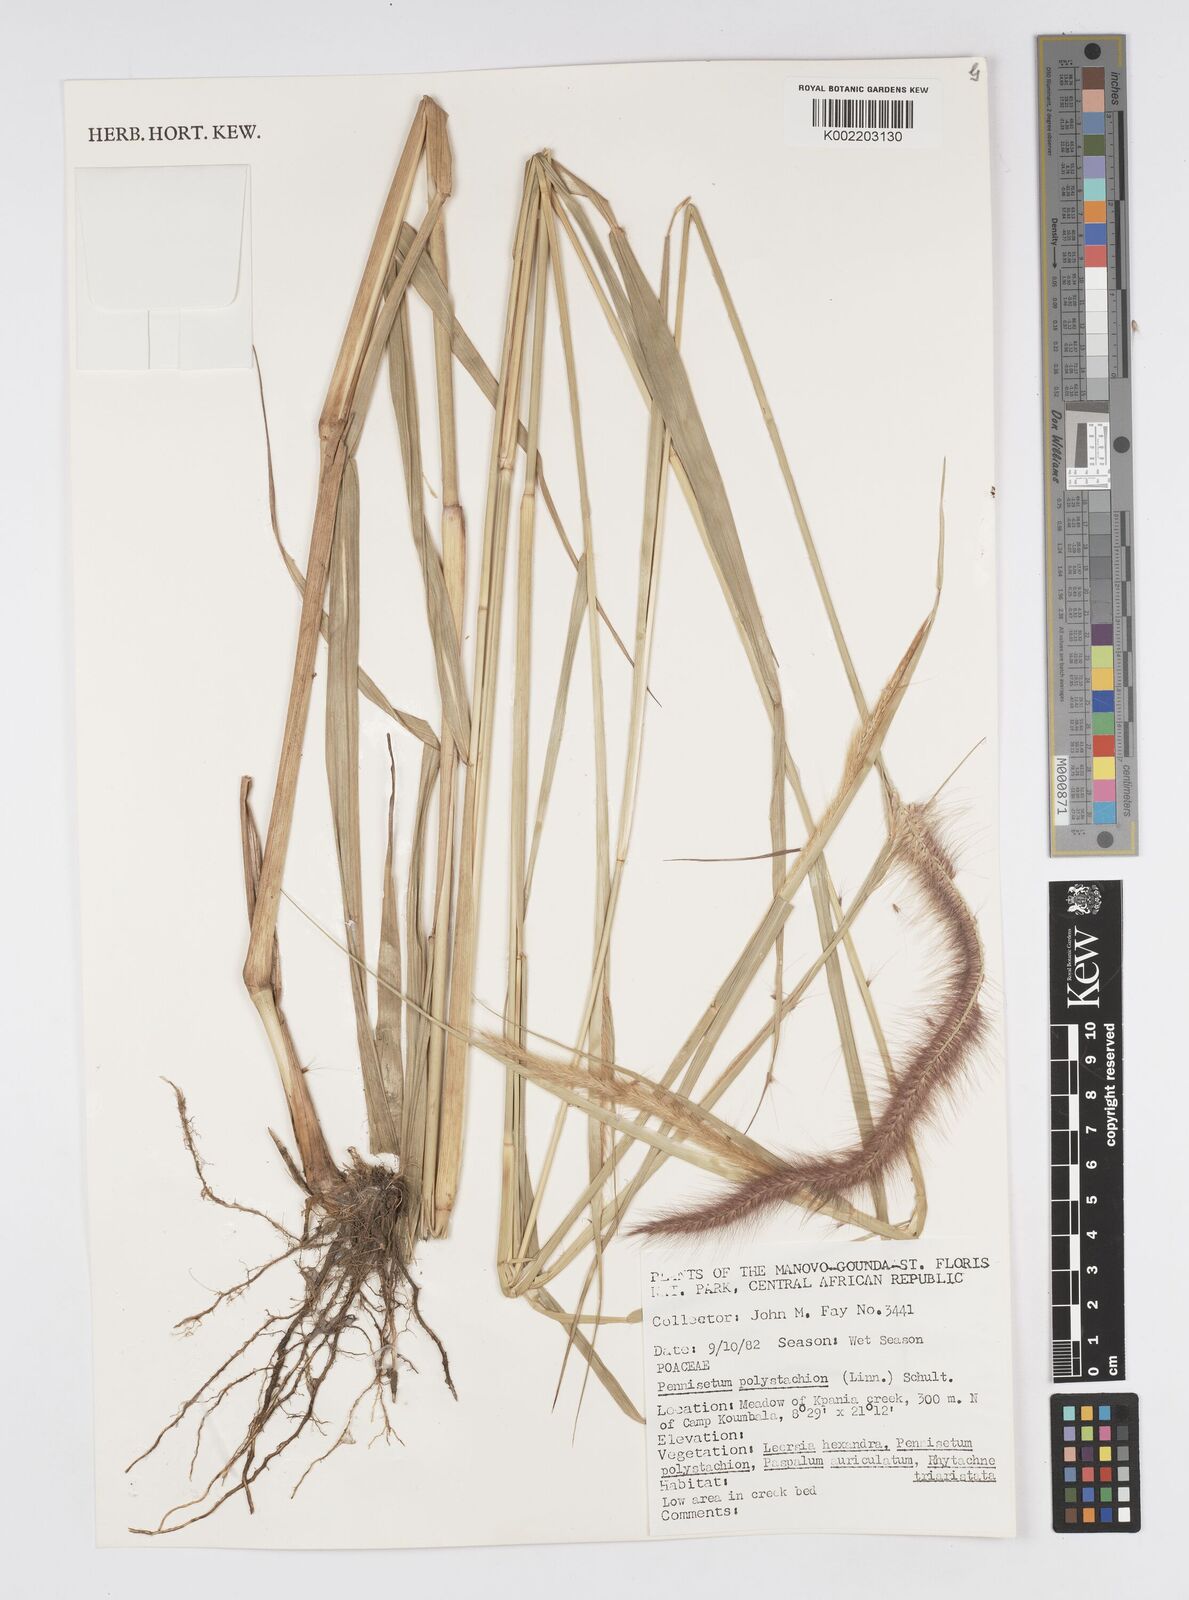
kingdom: Plantae
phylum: Tracheophyta
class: Liliopsida
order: Poales
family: Poaceae
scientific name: Poaceae
